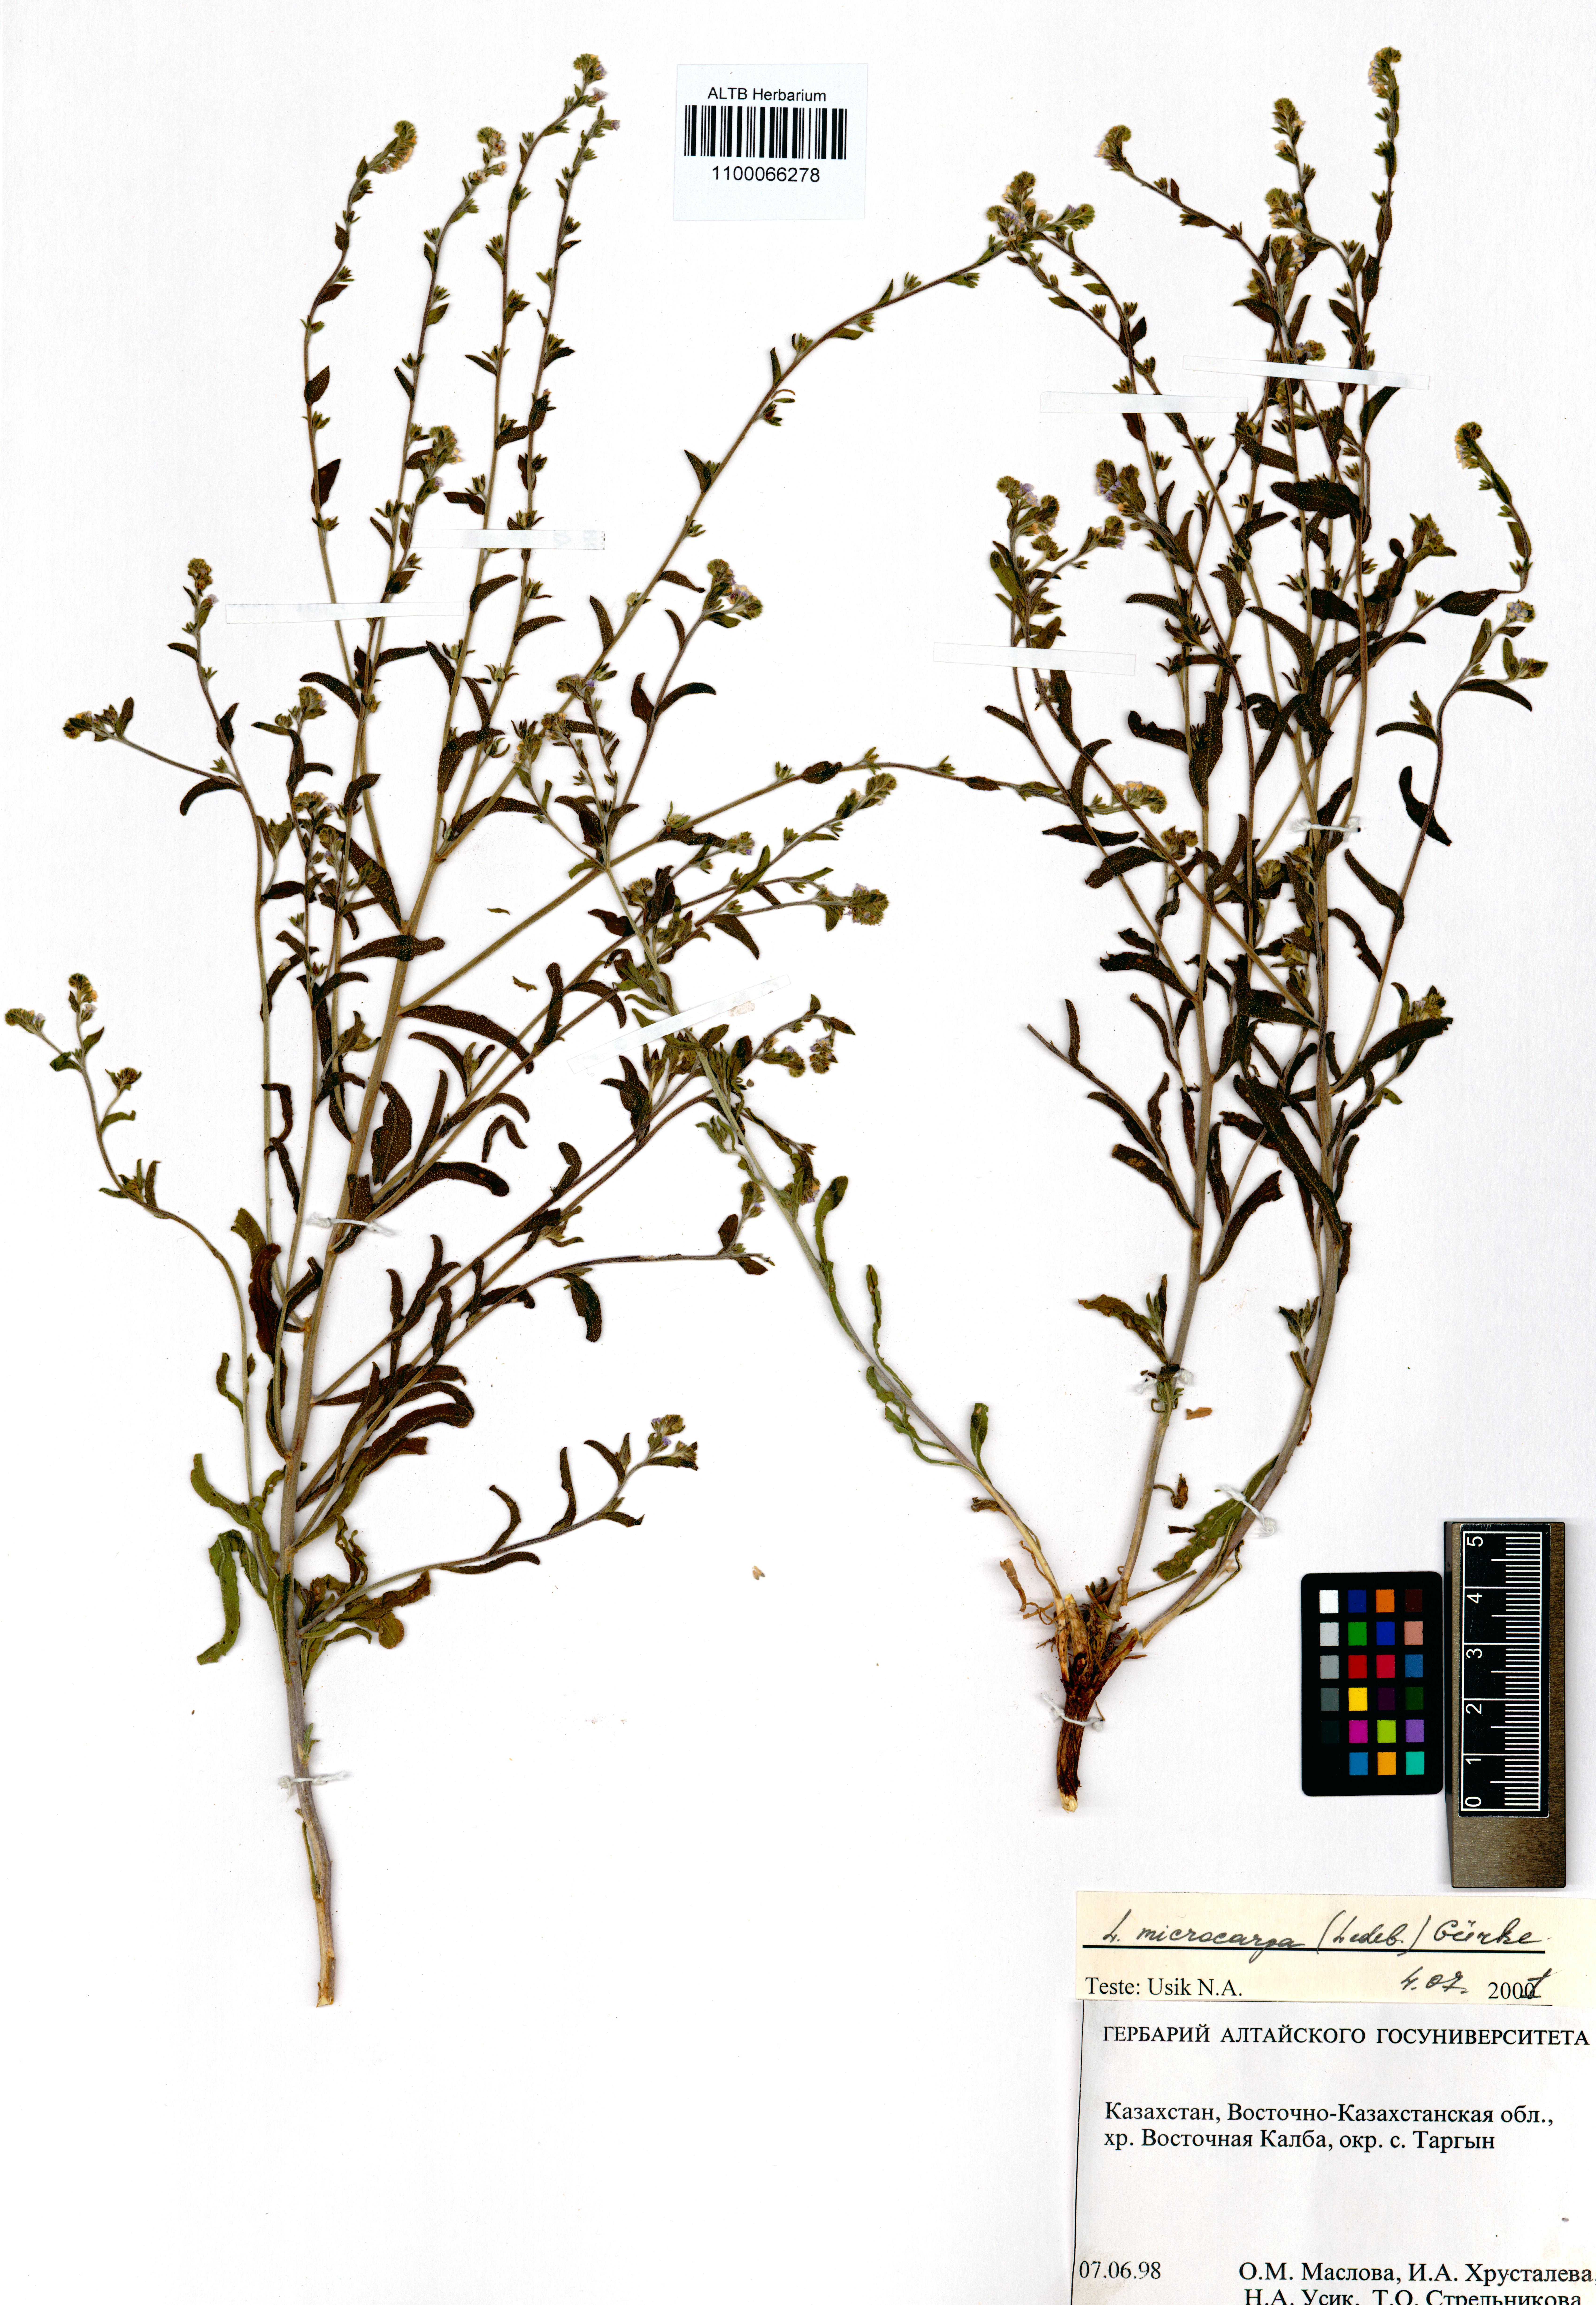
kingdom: Plantae
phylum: Tracheophyta
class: Magnoliopsida
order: Boraginales
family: Boraginaceae
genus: Lappula
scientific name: Lappula microcarpa
